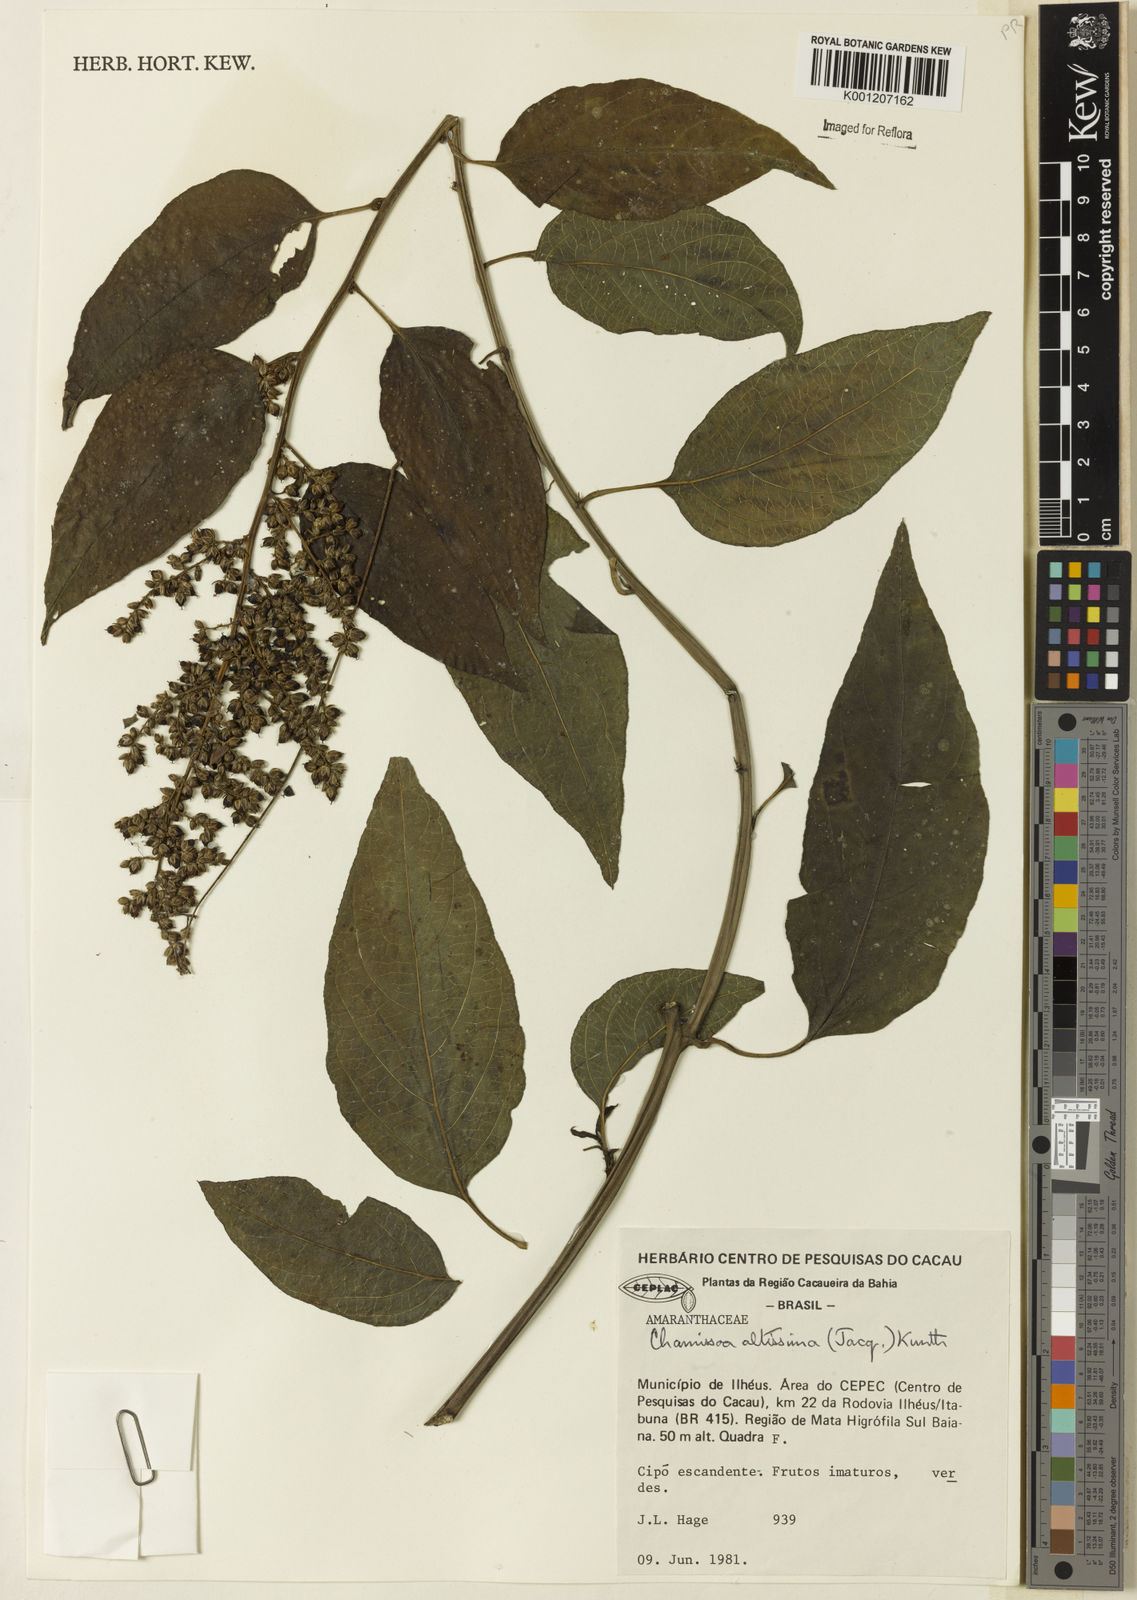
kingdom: Plantae
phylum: Tracheophyta
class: Magnoliopsida
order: Caryophyllales
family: Amaranthaceae
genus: Chamissoa
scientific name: Chamissoa altissima
